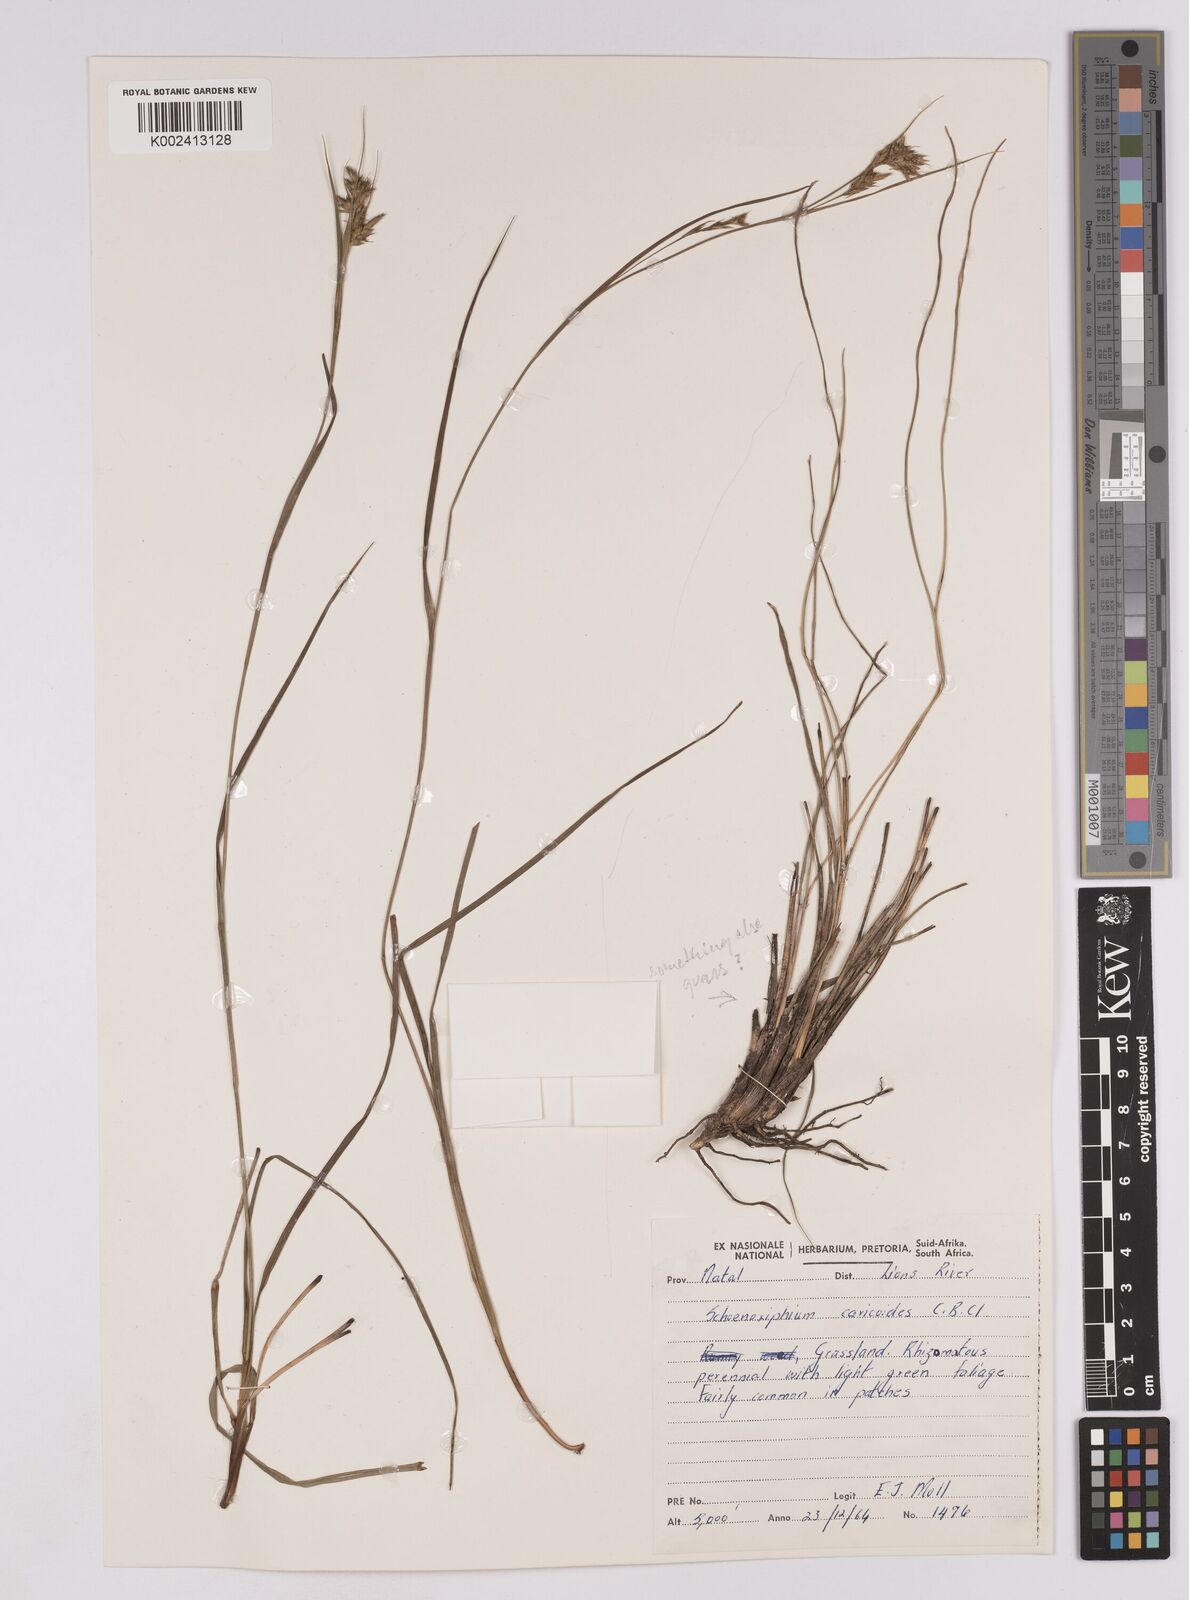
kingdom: Plantae
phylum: Tracheophyta
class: Liliopsida
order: Poales
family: Cyperaceae
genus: Carex
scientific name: Carex spartea
